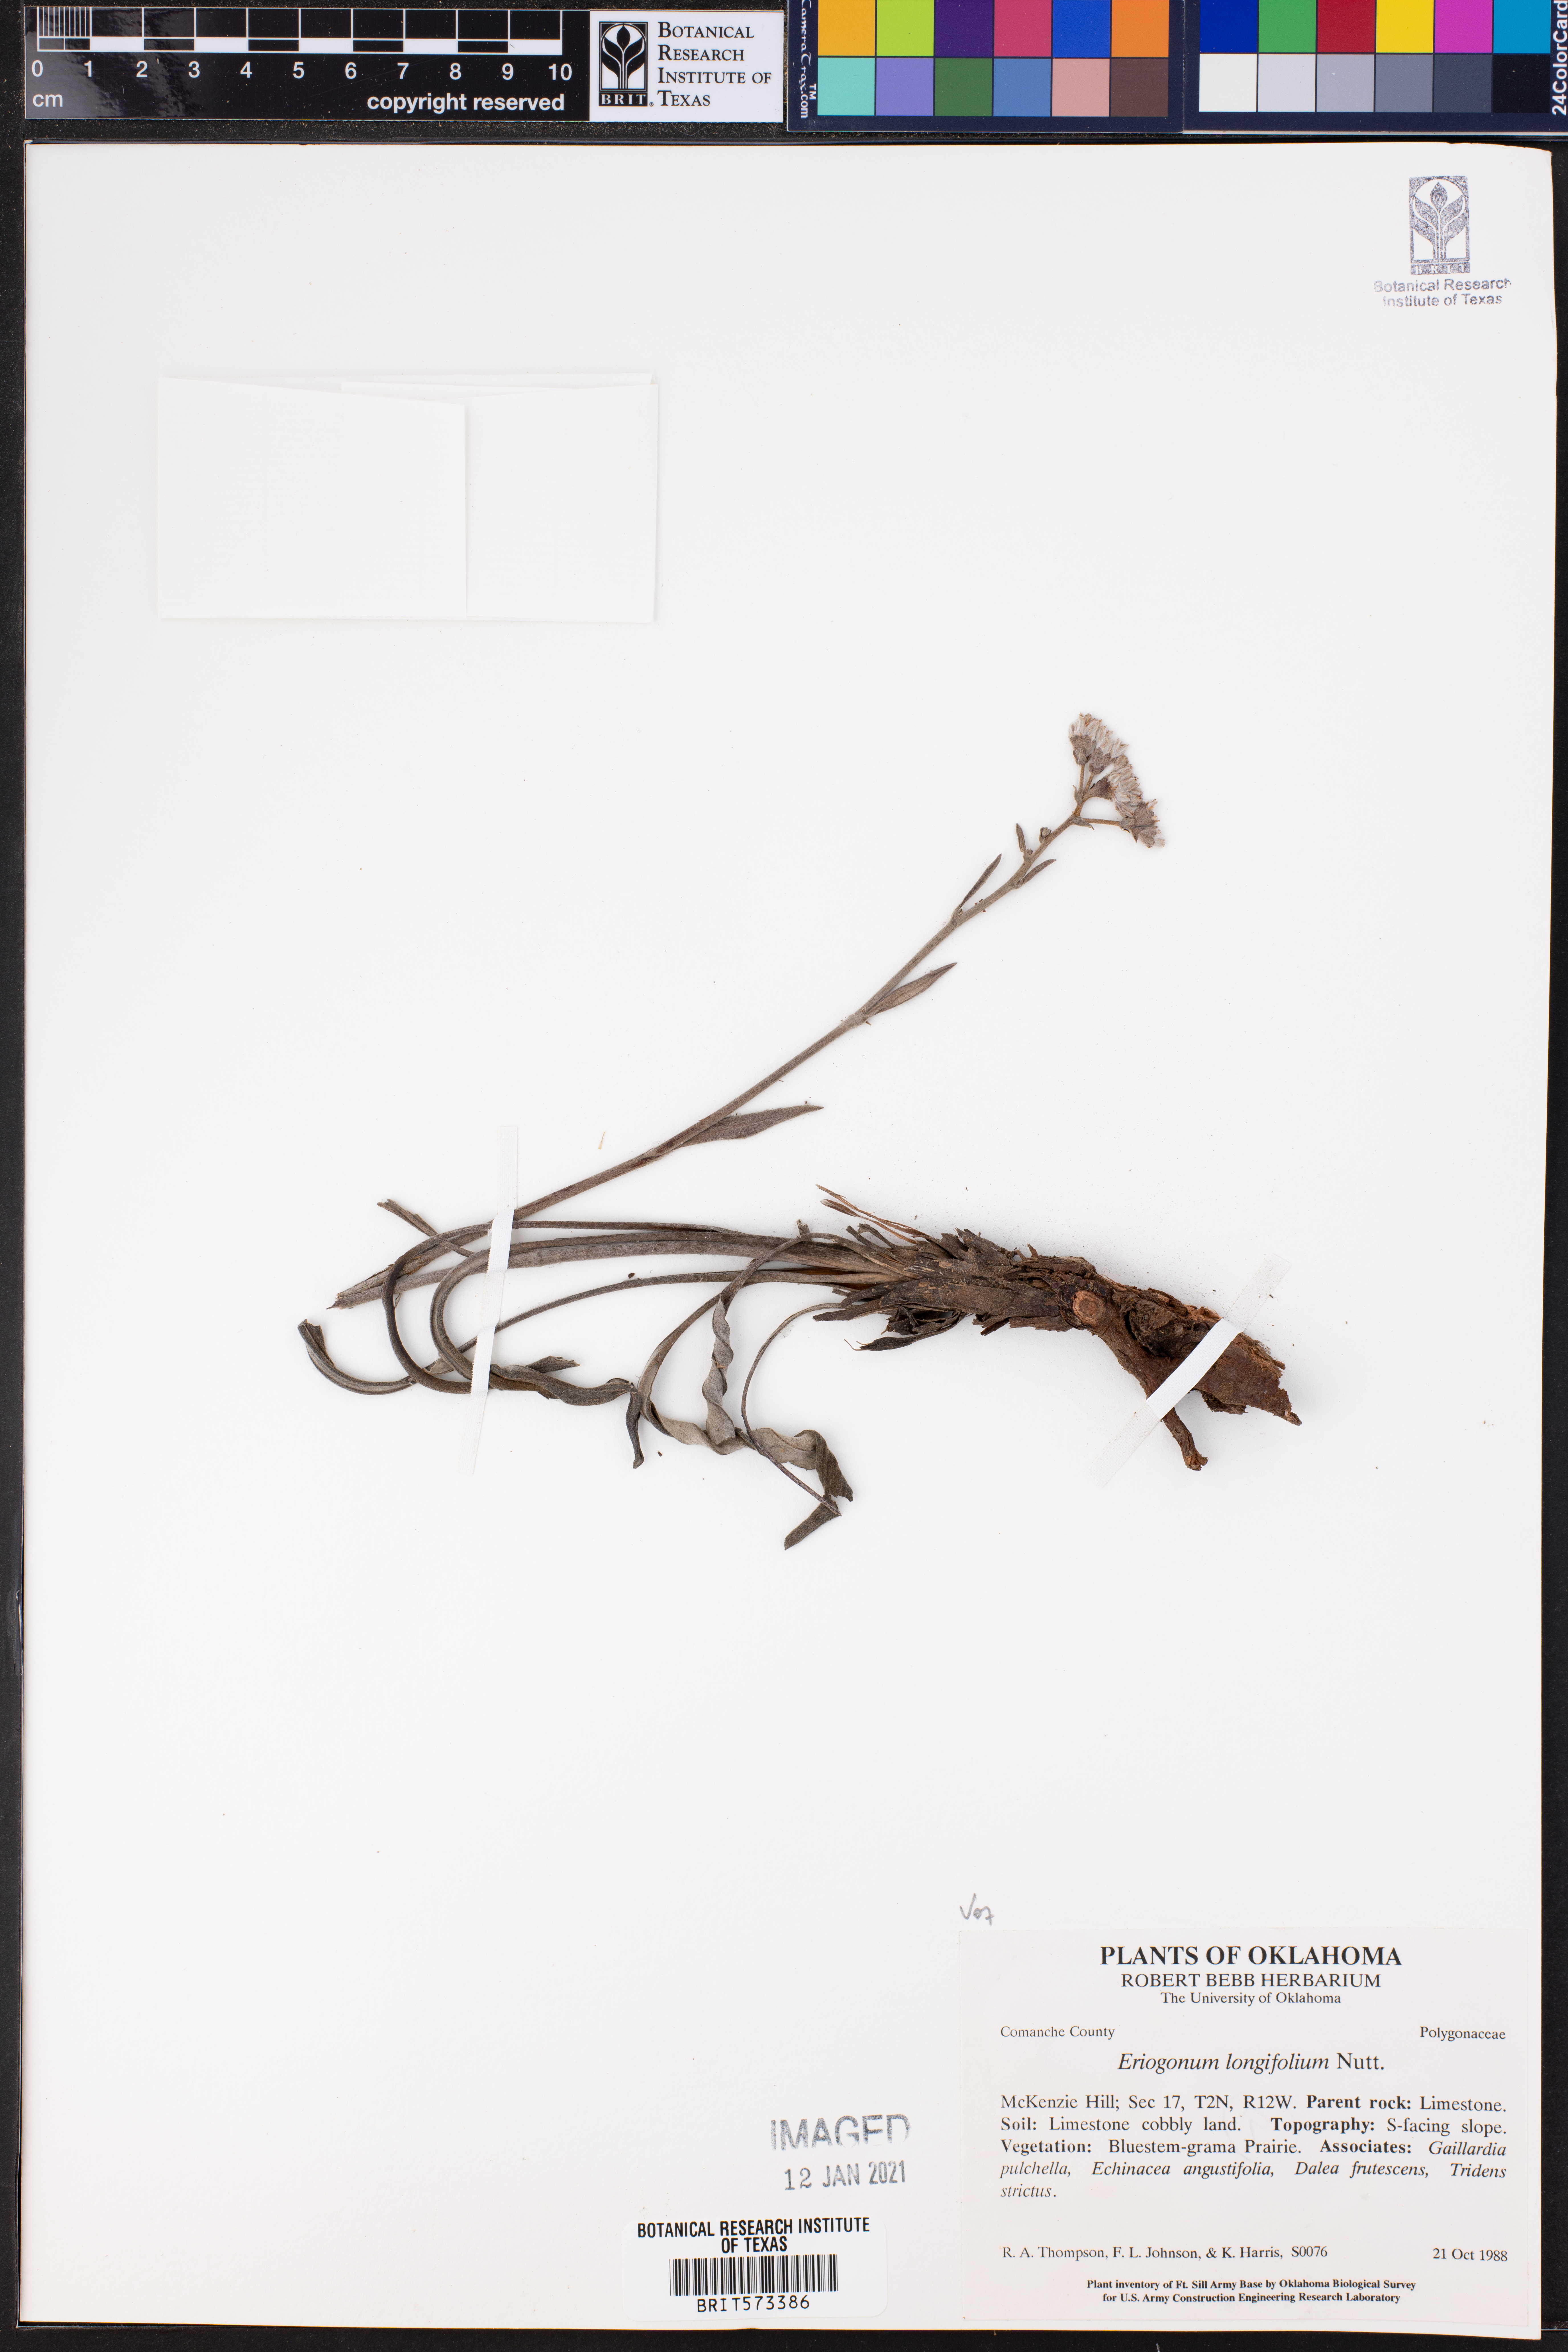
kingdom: Plantae
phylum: Tracheophyta
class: Magnoliopsida
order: Caryophyllales
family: Polygonaceae
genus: Eriogonum
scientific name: Eriogonum longifolium
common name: Longleaf wild buckwheat
